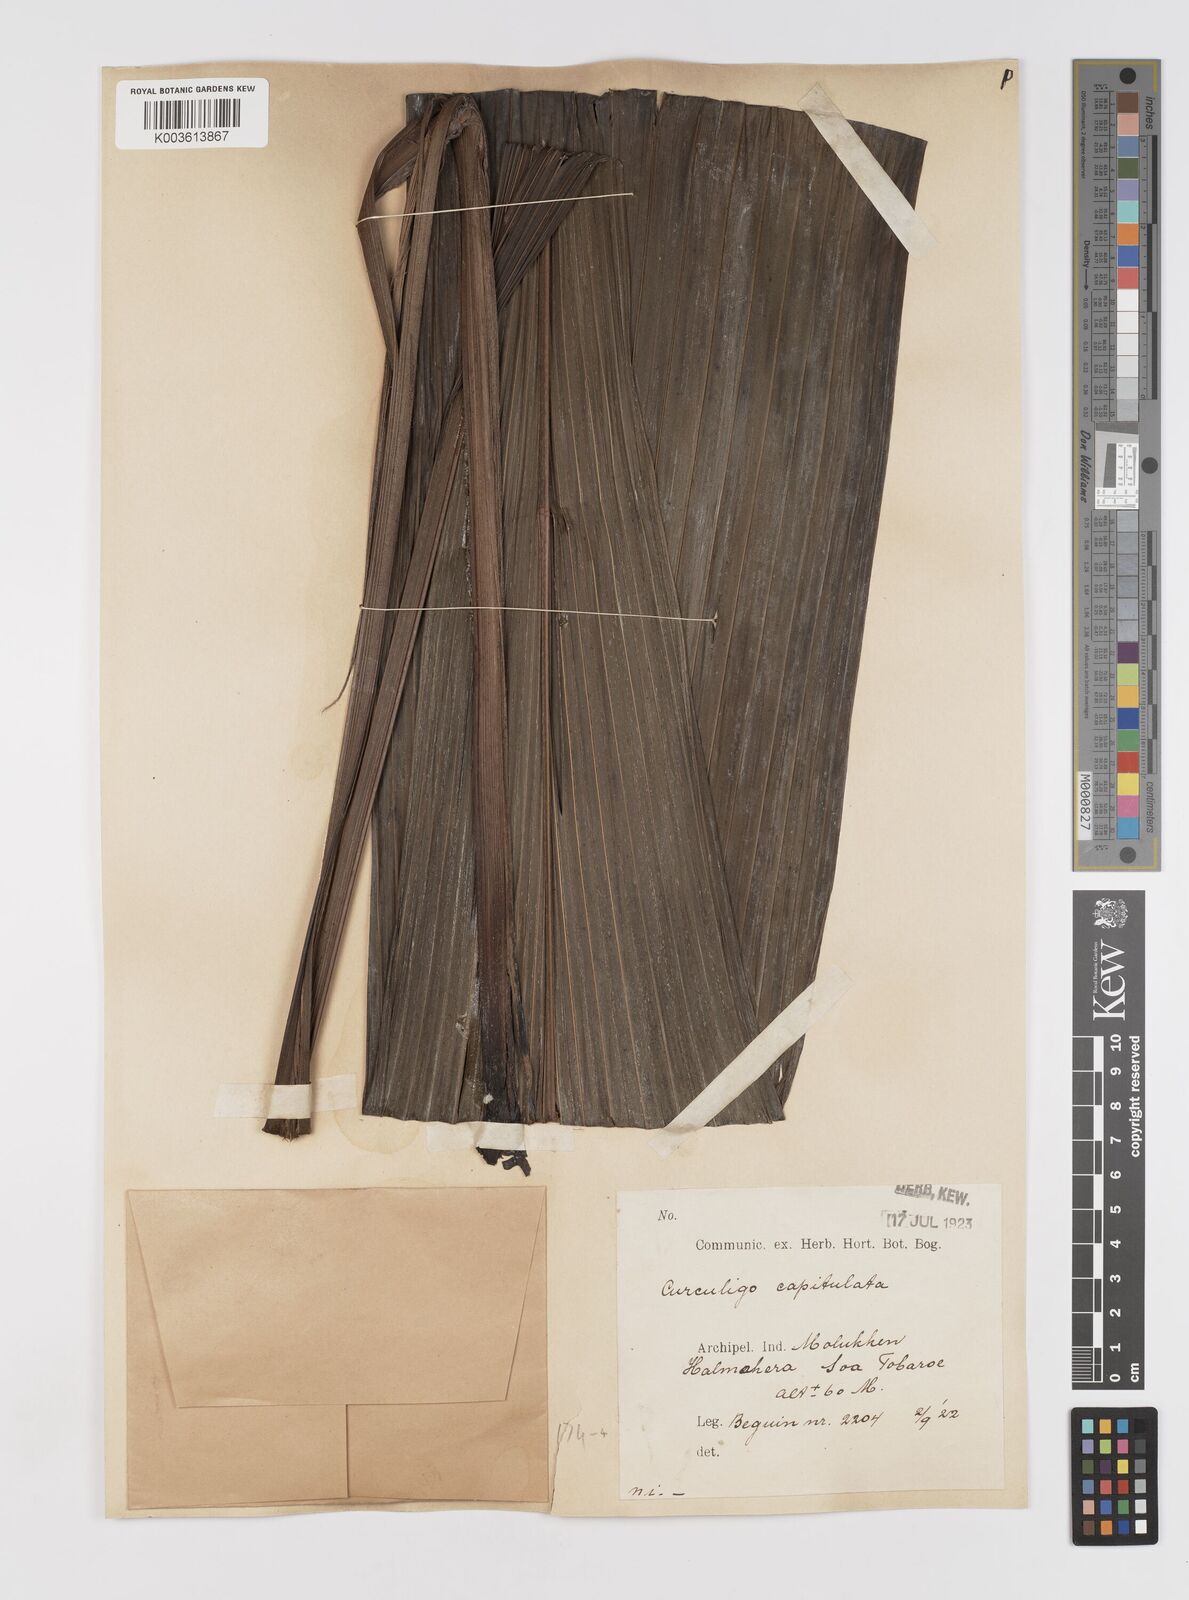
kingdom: Plantae
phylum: Tracheophyta
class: Liliopsida
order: Asparagales
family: Hypoxidaceae
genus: Curculigo
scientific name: Curculigo capitulata
